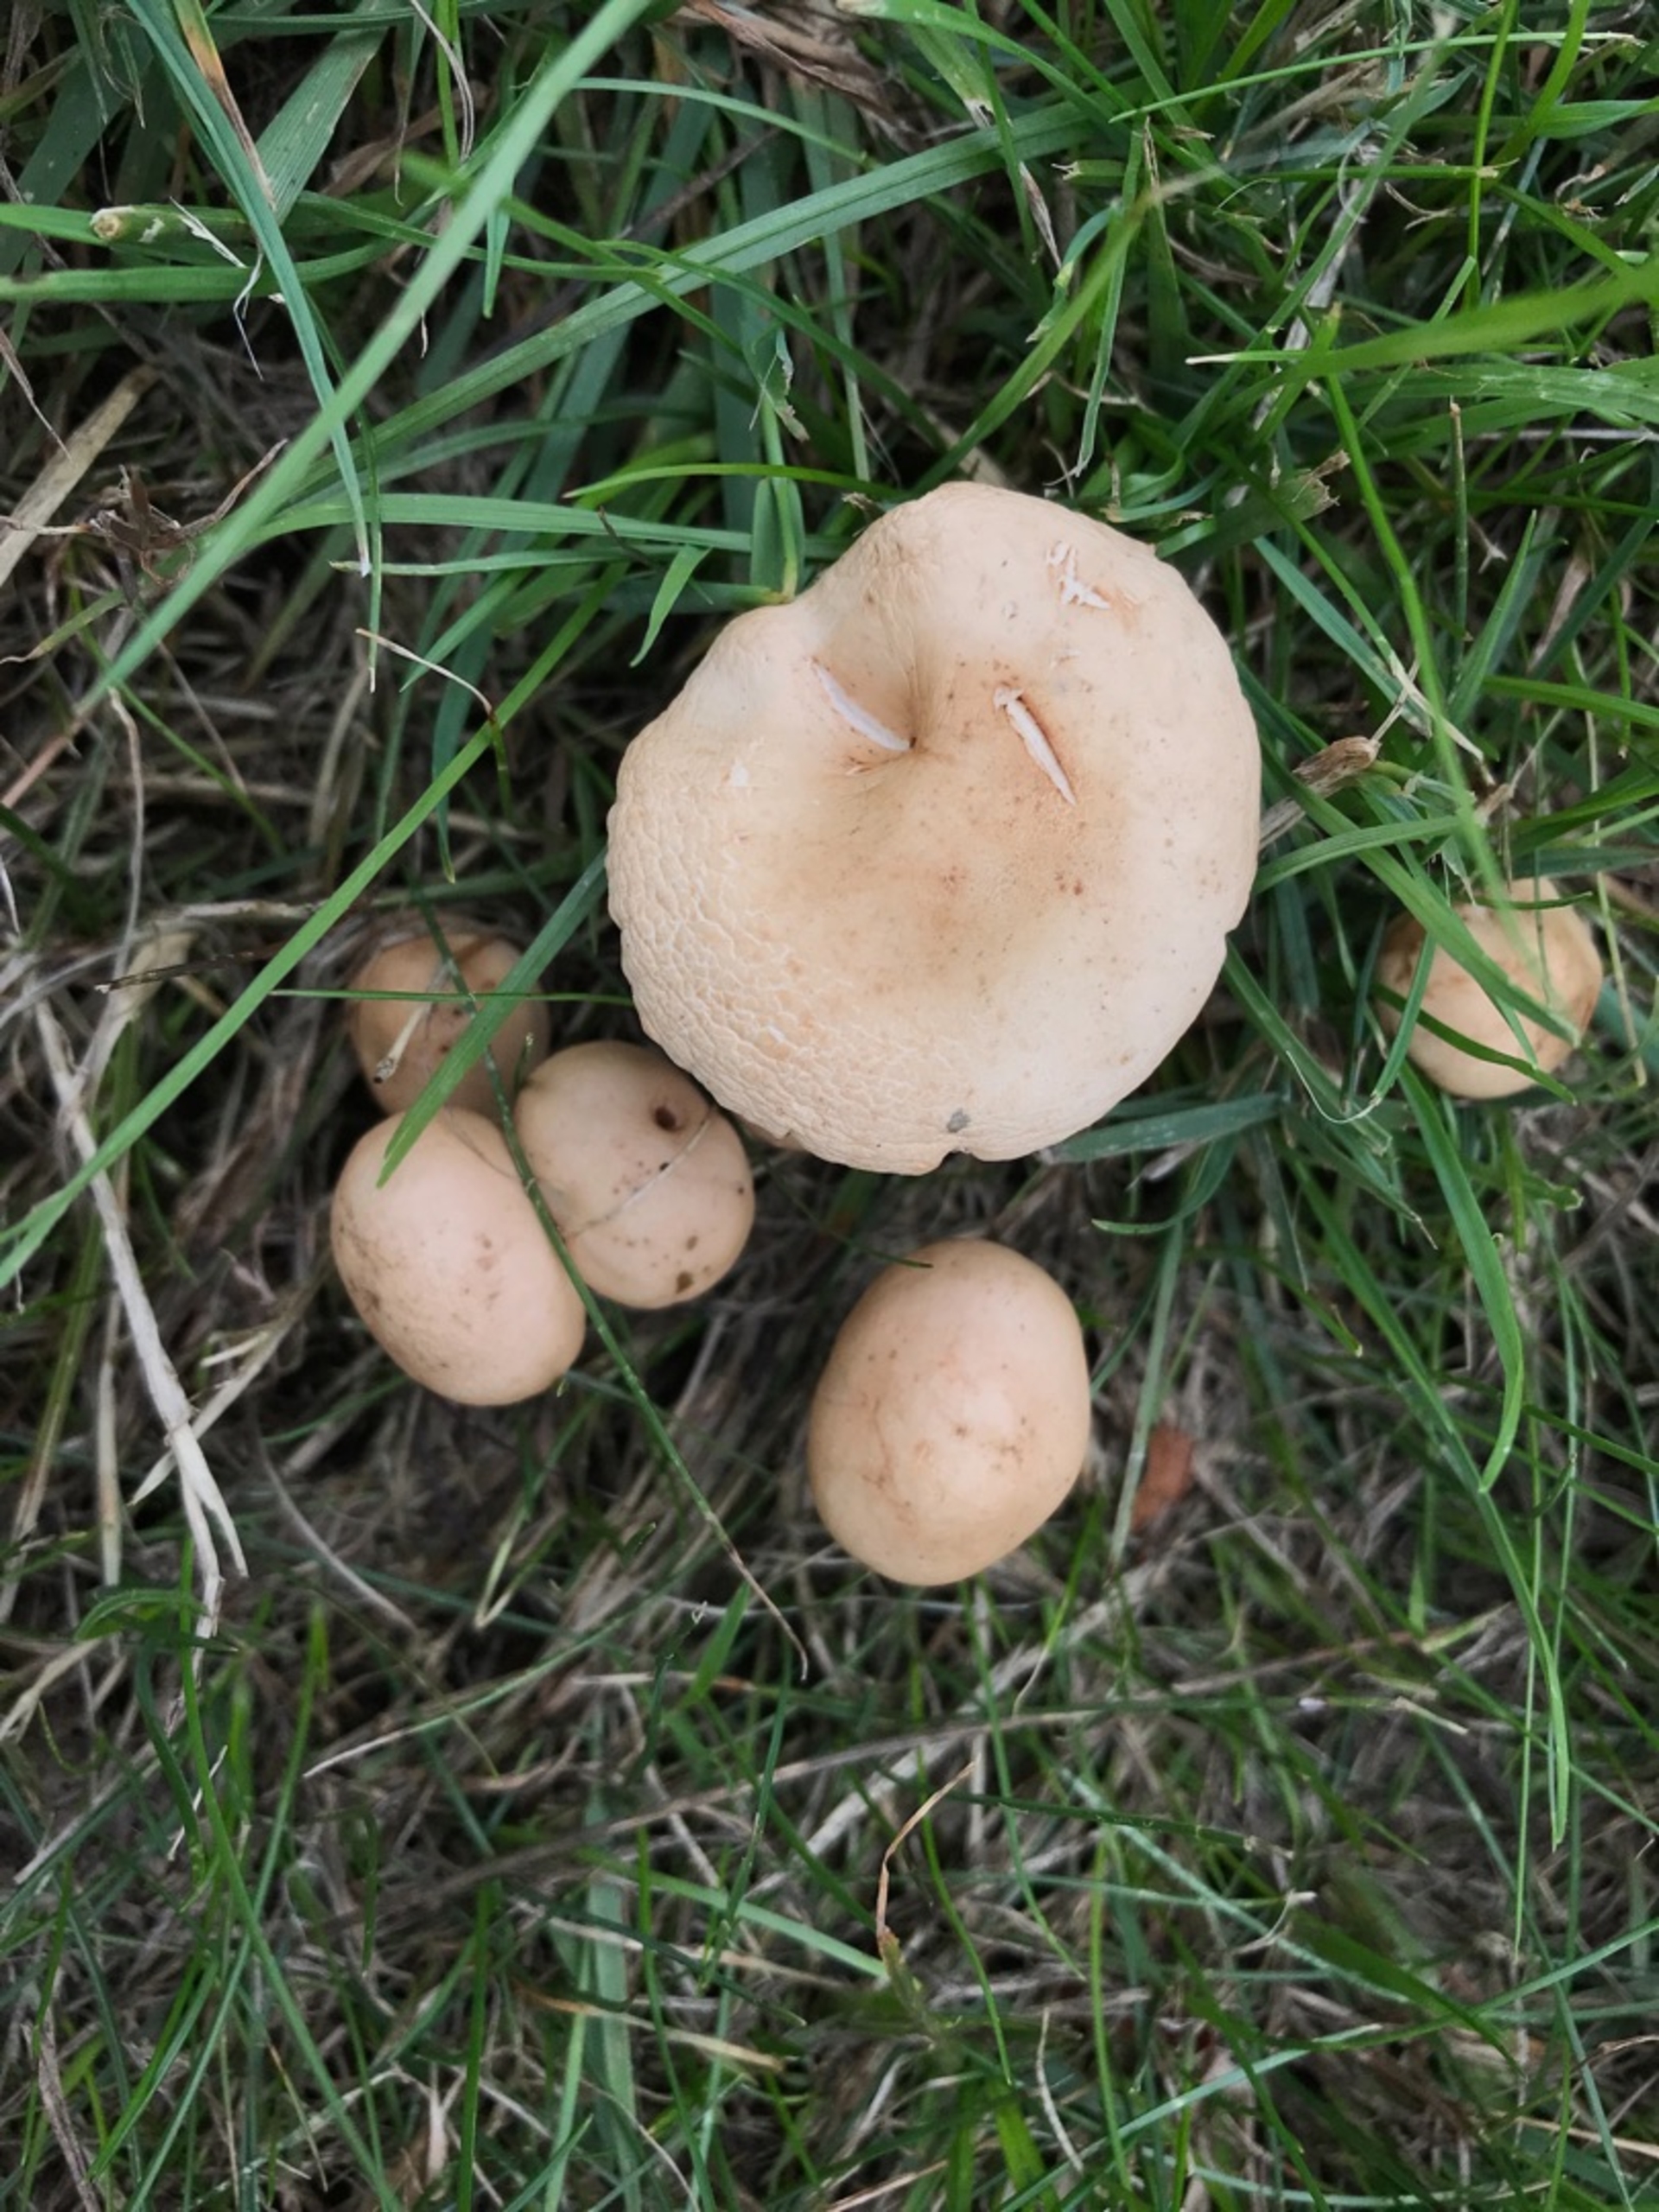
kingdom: Fungi
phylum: Basidiomycota
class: Agaricomycetes
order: Agaricales
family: Marasmiaceae
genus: Marasmius
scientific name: Marasmius oreades
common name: Elledans-bruskhat
